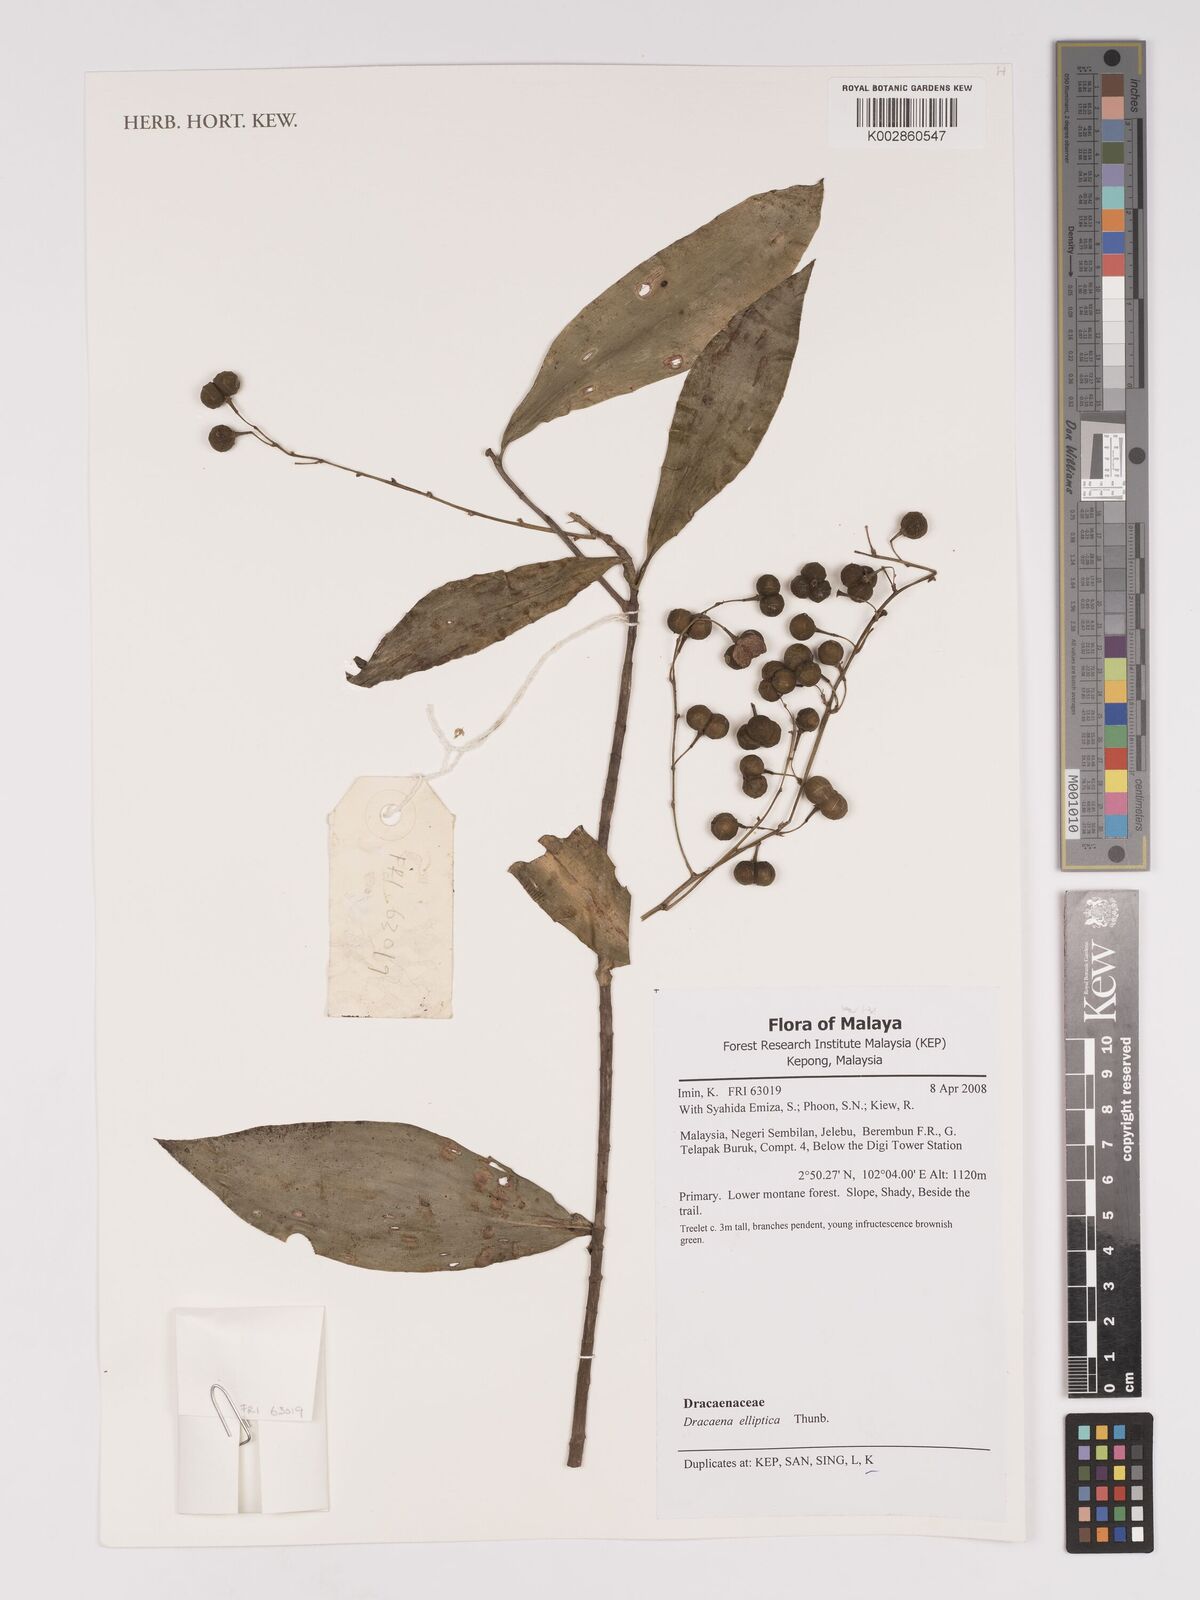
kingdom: Plantae
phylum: Tracheophyta
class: Liliopsida
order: Asparagales
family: Asparagaceae
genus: Dracaena
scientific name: Dracaena elliptica
